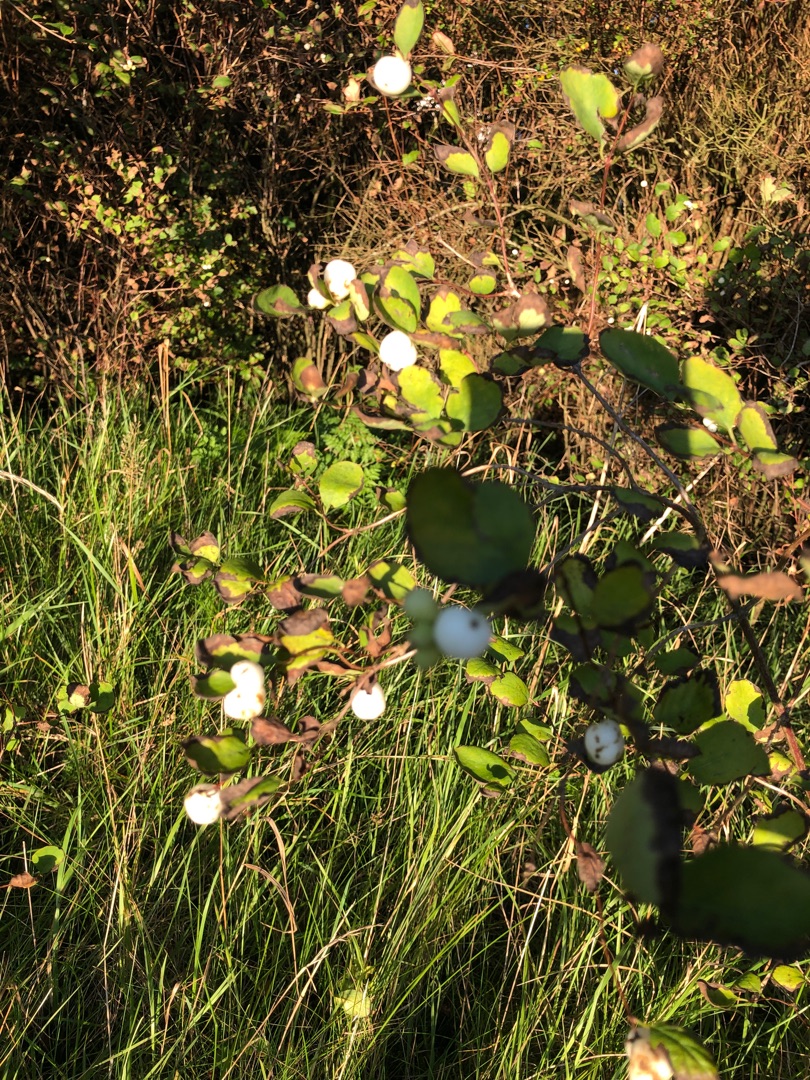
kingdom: Plantae
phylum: Tracheophyta
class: Magnoliopsida
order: Dipsacales
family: Caprifoliaceae
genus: Symphoricarpos
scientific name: Symphoricarpos albus
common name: Almindelig snebær
